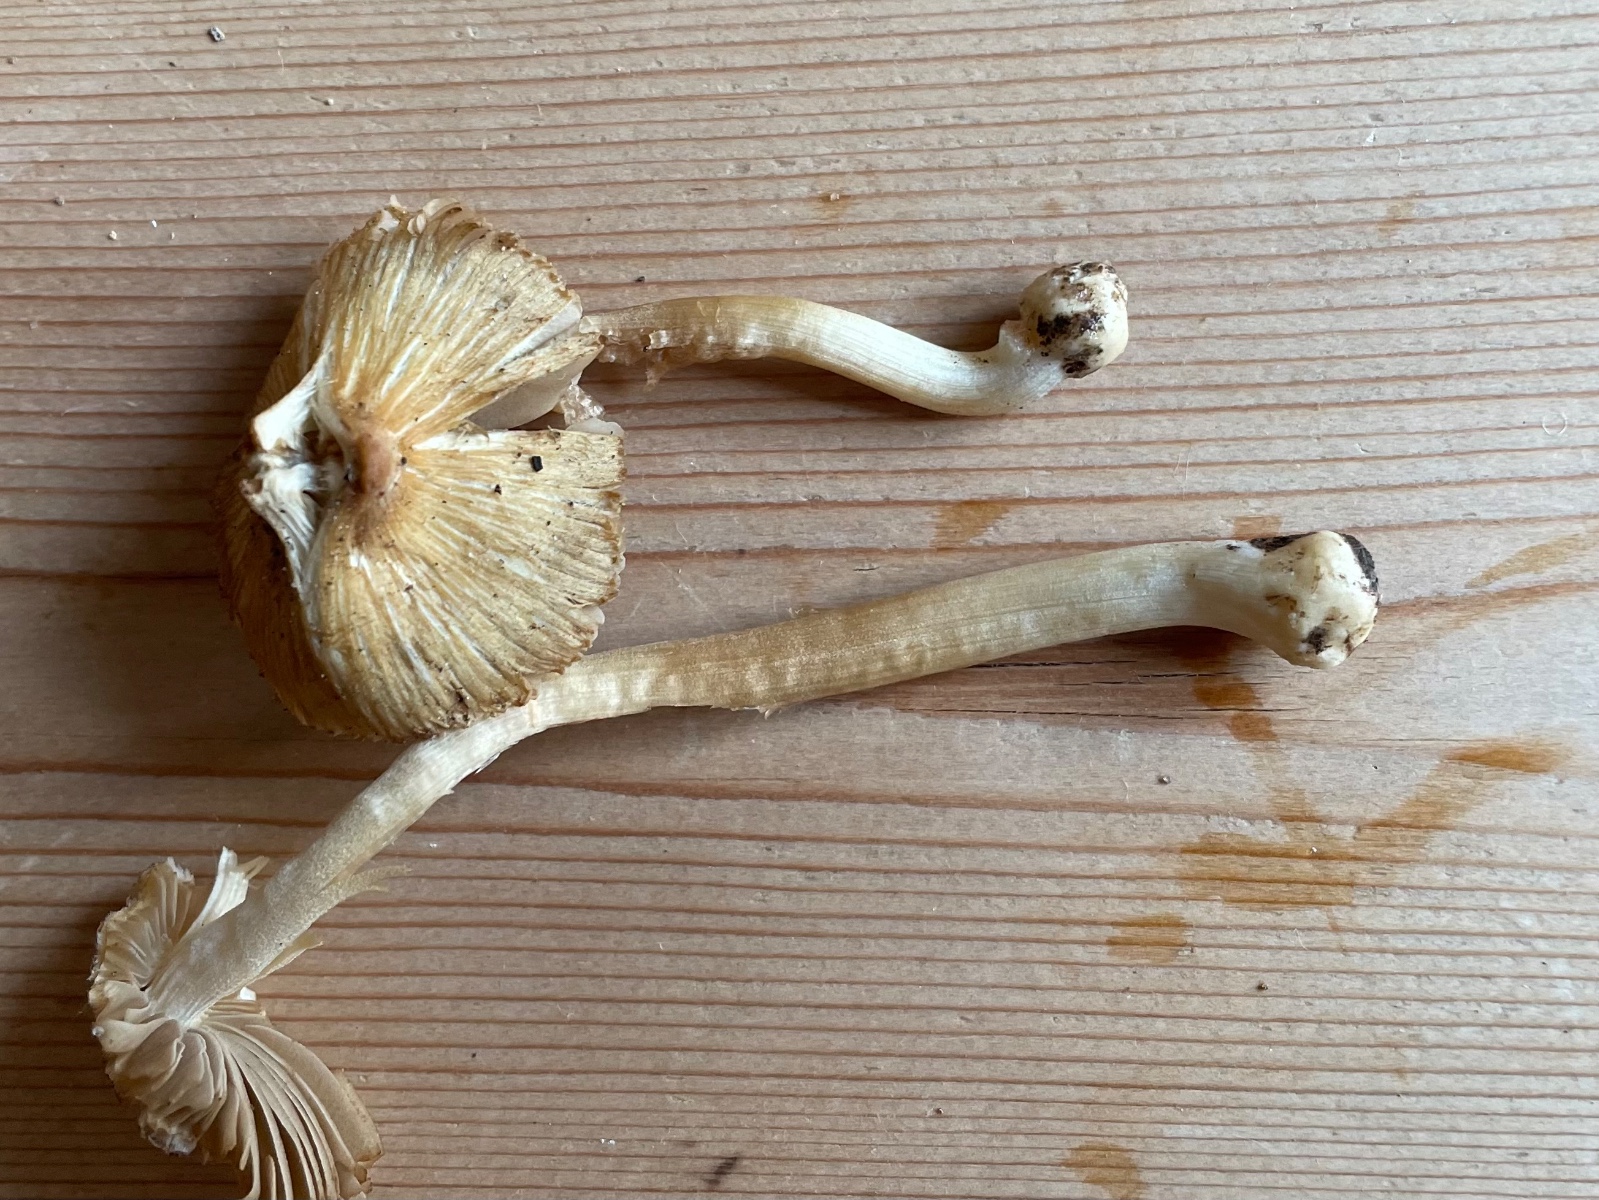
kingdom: Fungi
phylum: Basidiomycota
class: Agaricomycetes
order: Agaricales
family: Inocybaceae
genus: Inocybe
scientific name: Inocybe
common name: trævlhat
